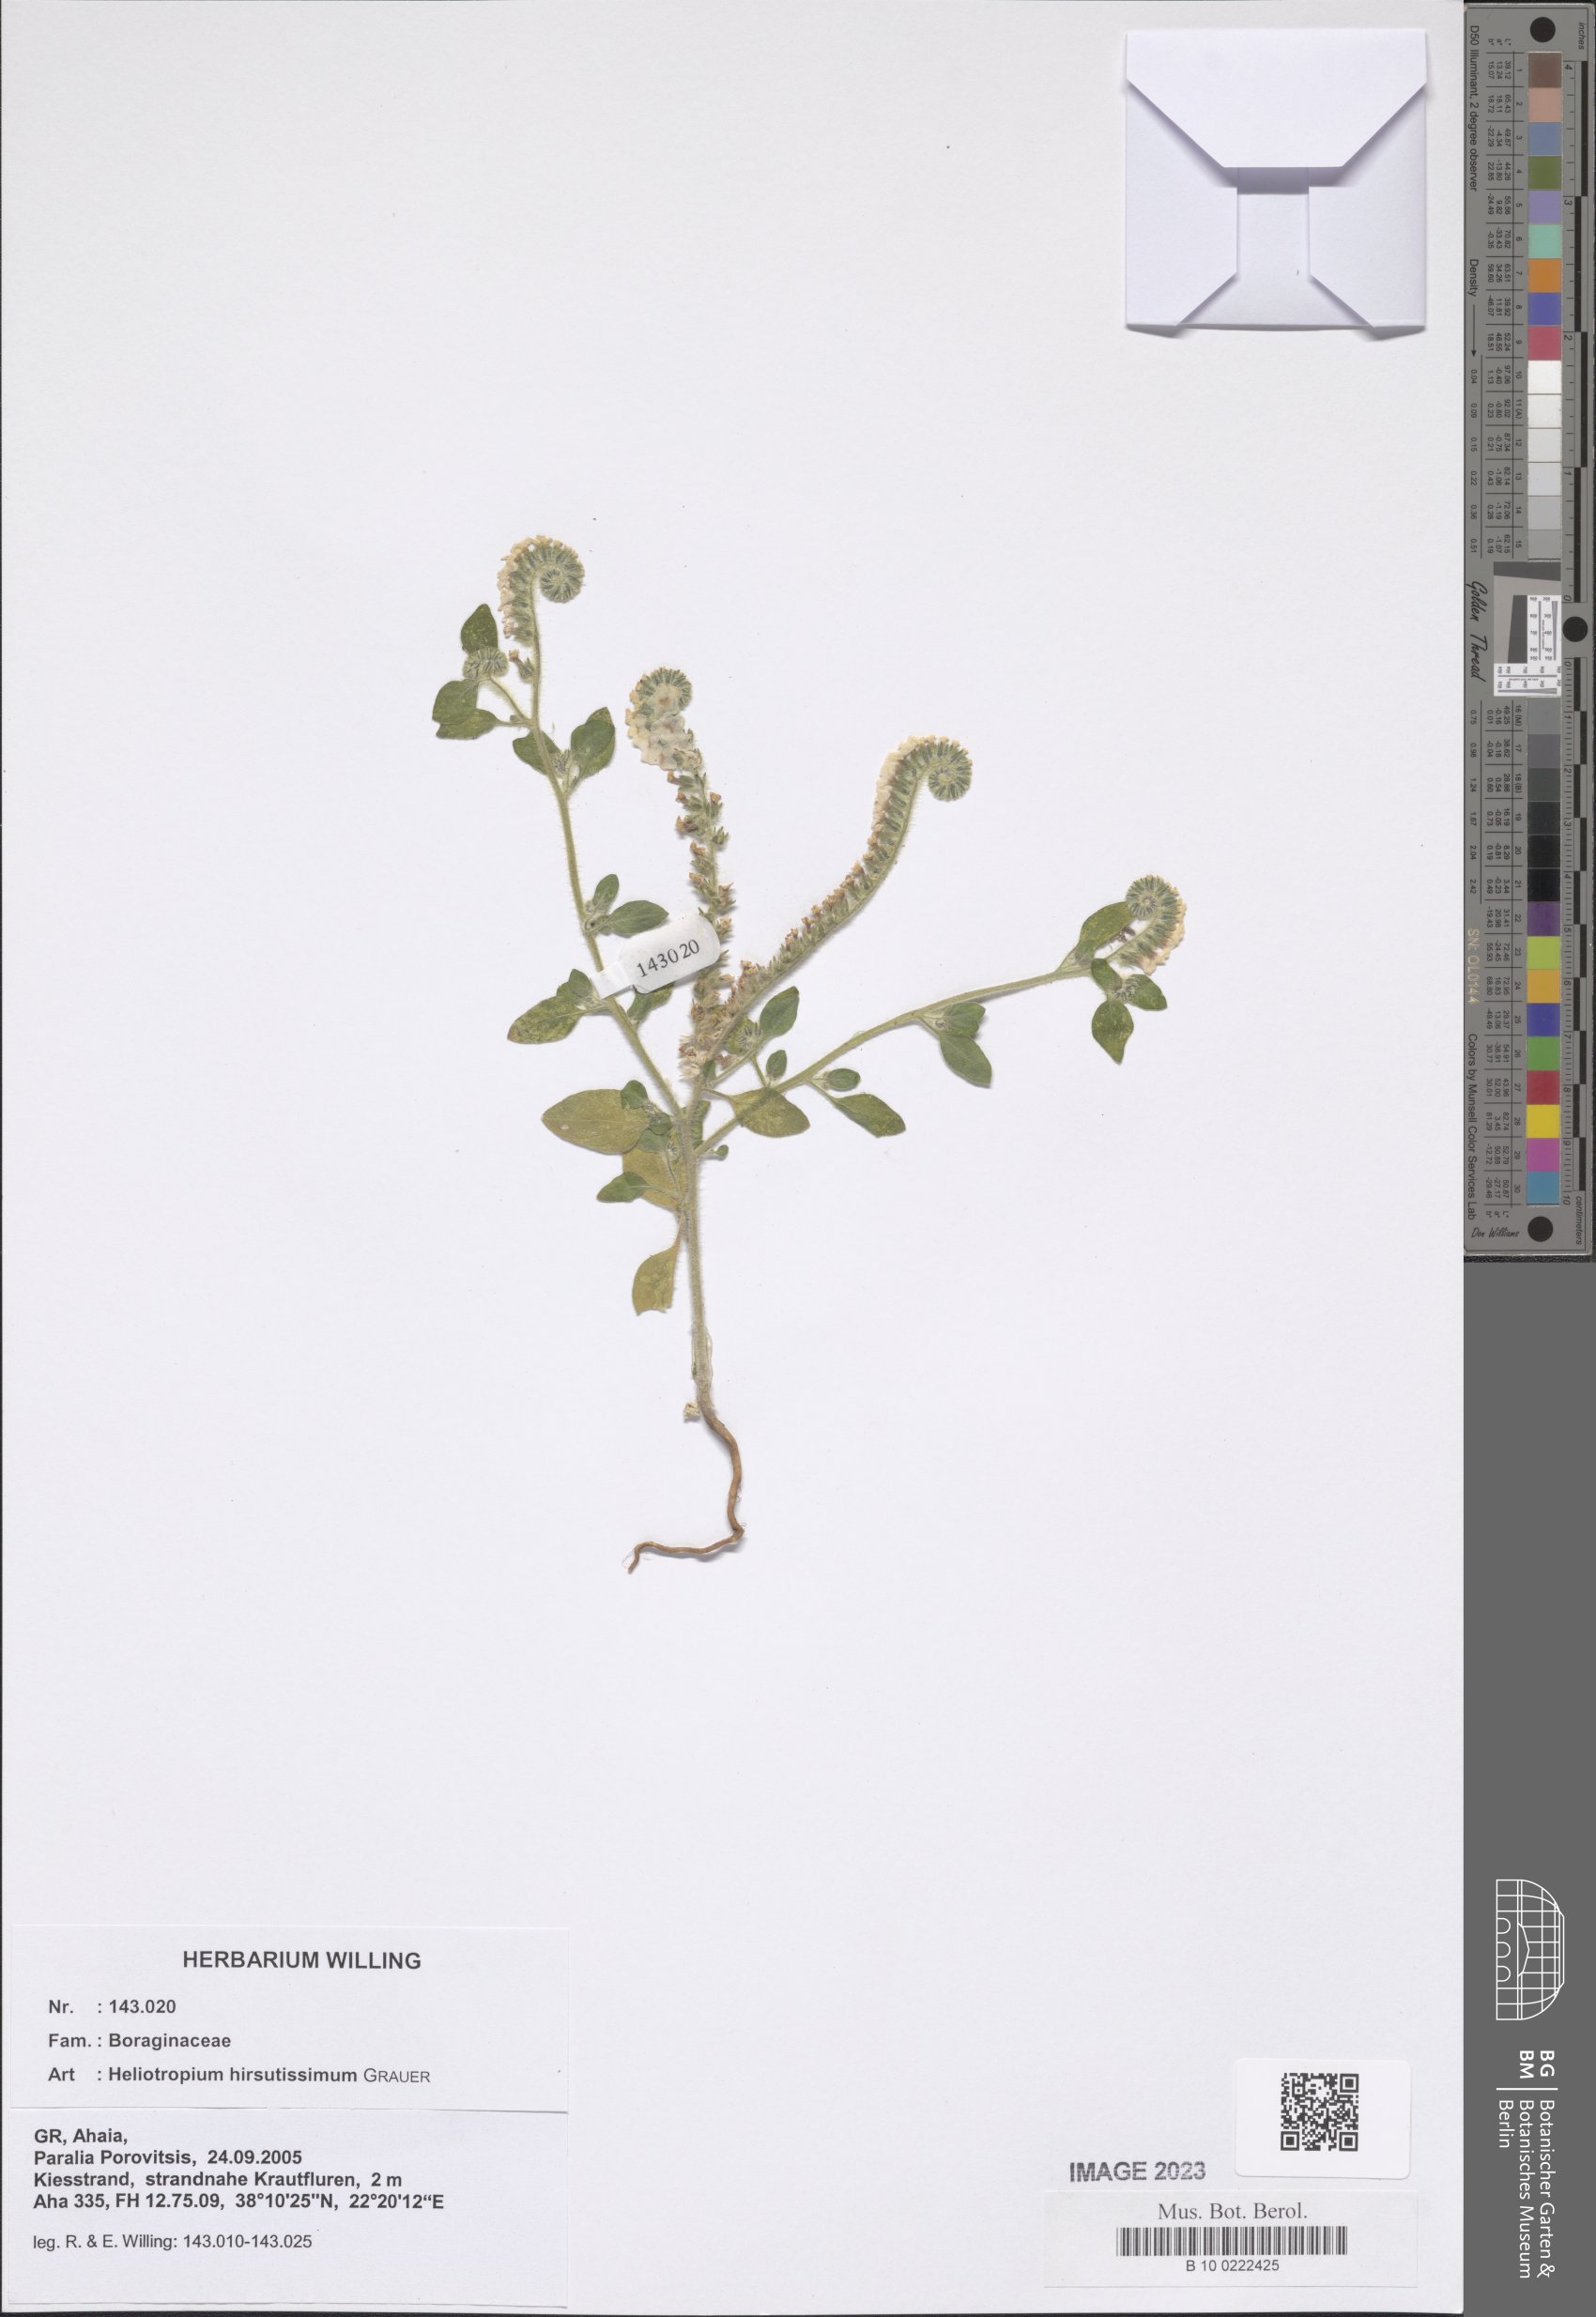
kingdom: Plantae
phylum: Tracheophyta
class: Magnoliopsida
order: Boraginales
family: Heliotropiaceae
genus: Heliotropium
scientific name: Heliotropium hirsutissimum
